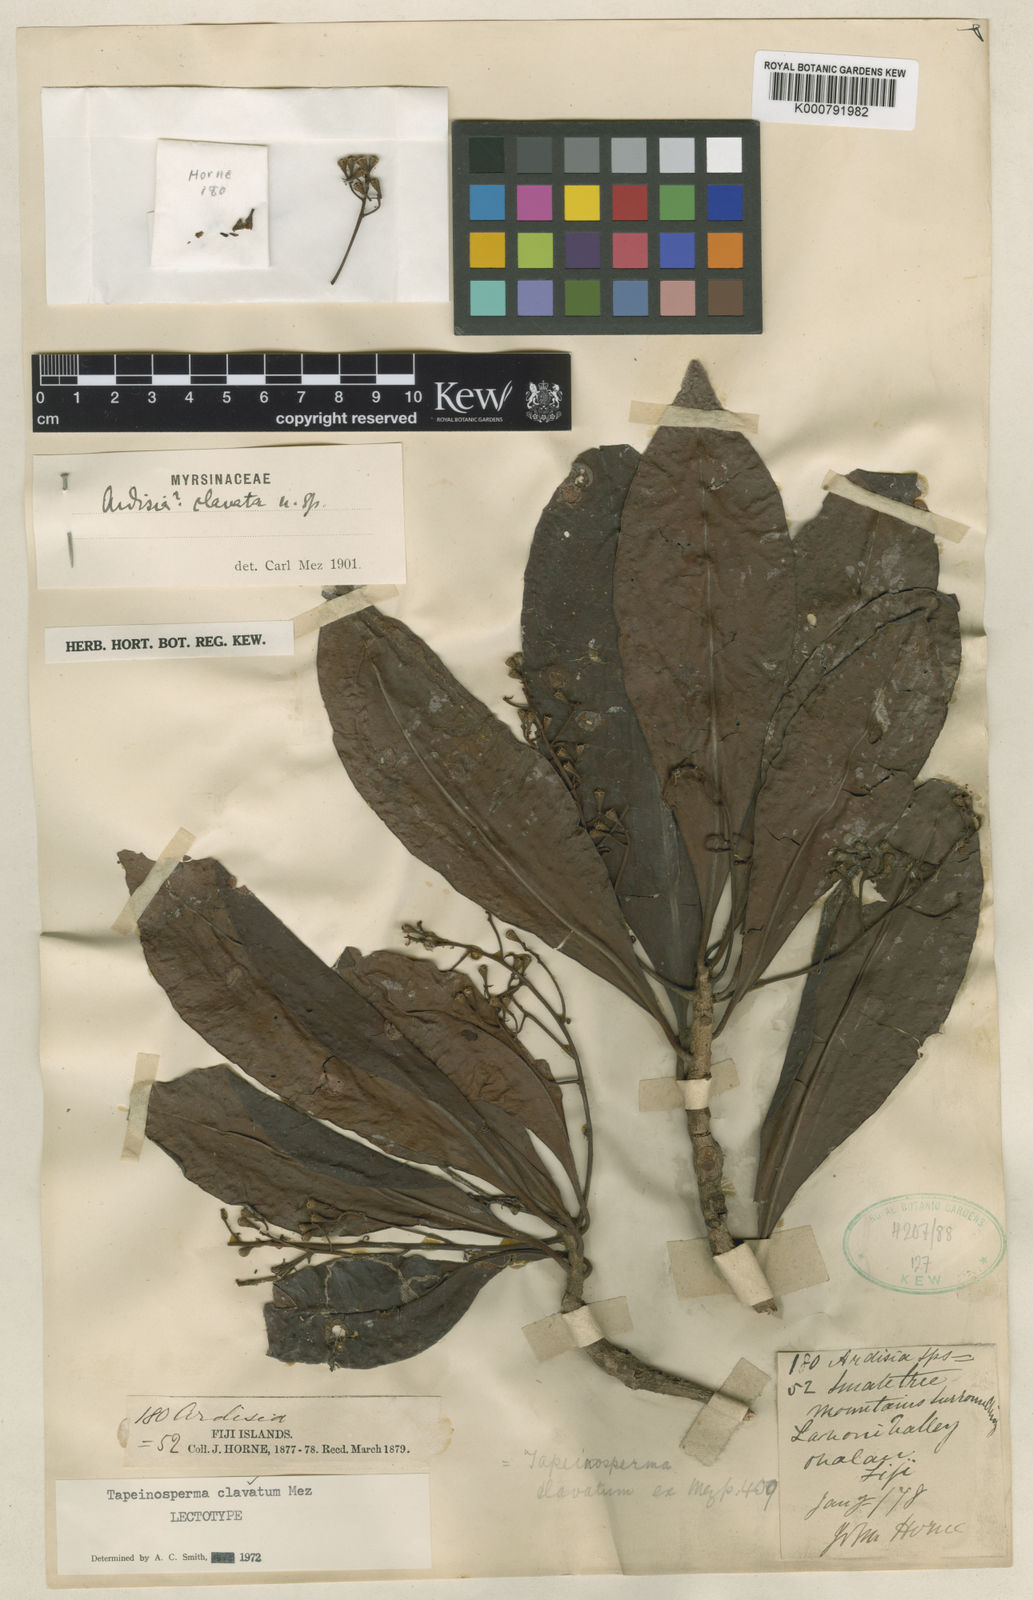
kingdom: Plantae
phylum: Tracheophyta
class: Magnoliopsida
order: Ericales
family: Primulaceae
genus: Tapeinosperma
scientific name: Tapeinosperma clavatum
